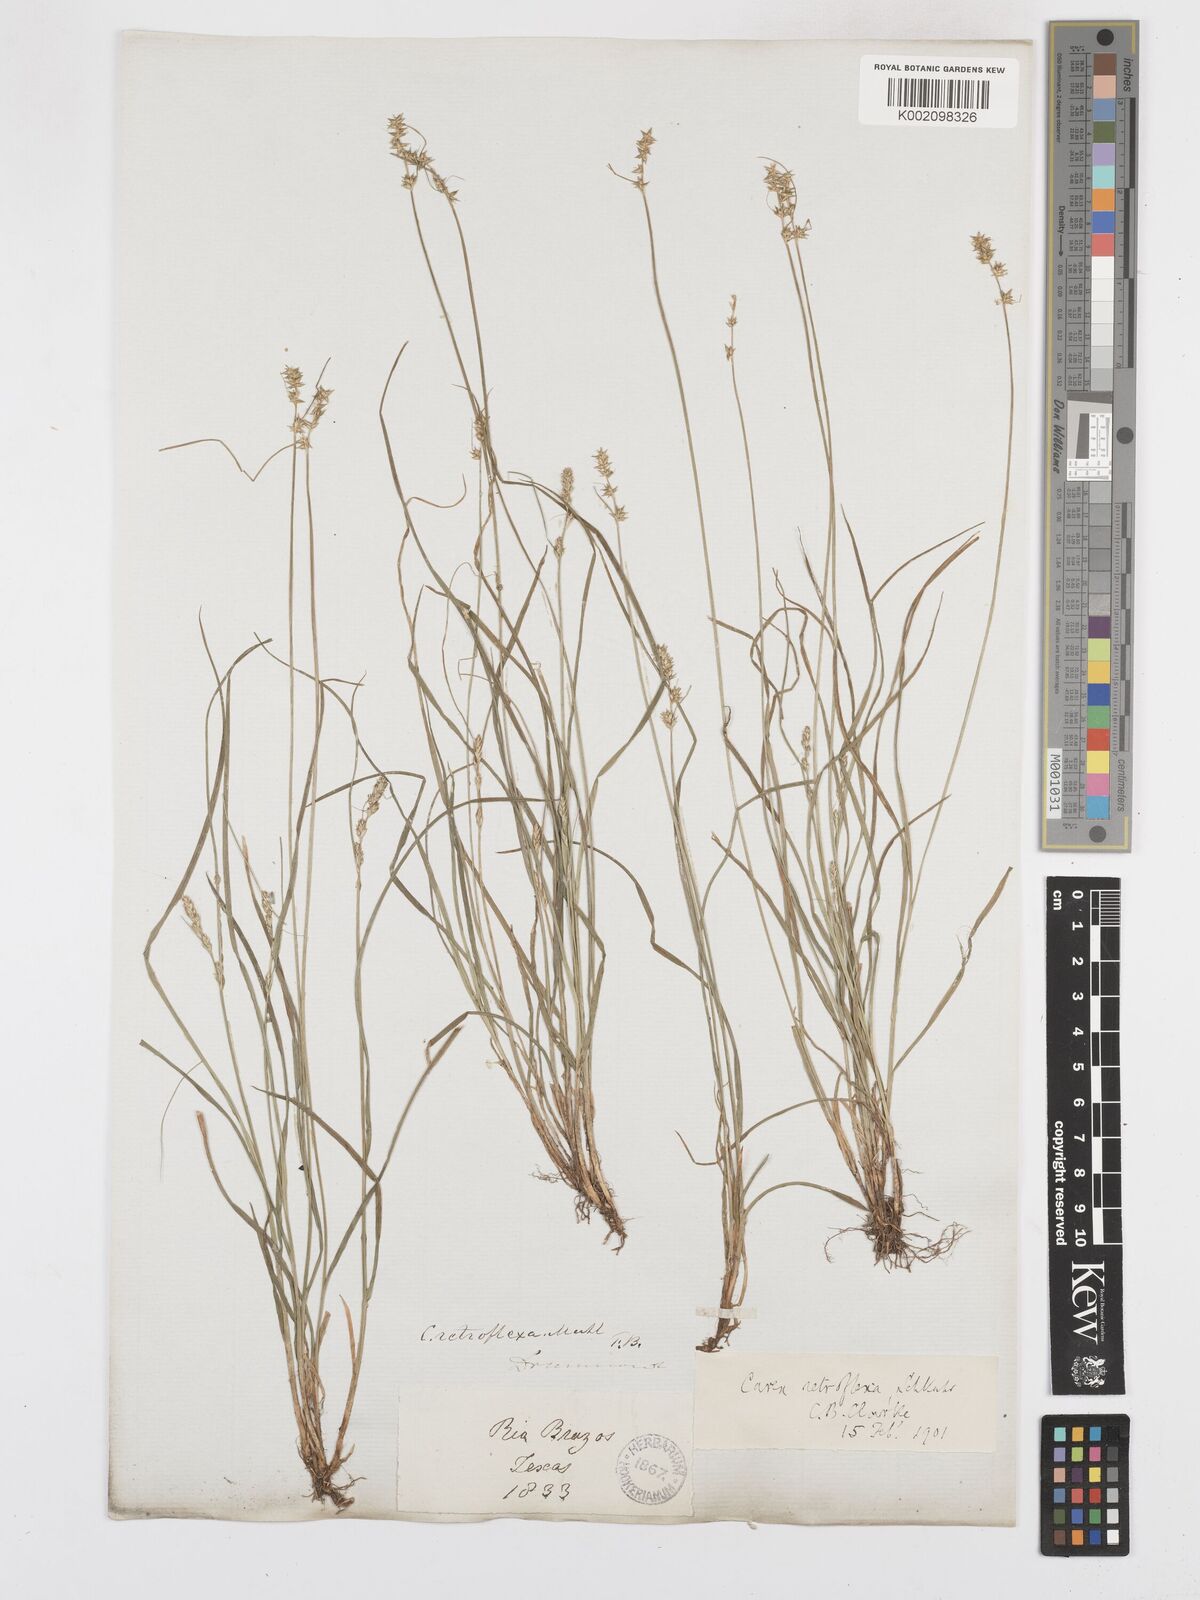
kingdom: Plantae
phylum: Tracheophyta
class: Liliopsida
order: Poales
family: Cyperaceae
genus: Carex
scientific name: Carex texensis
